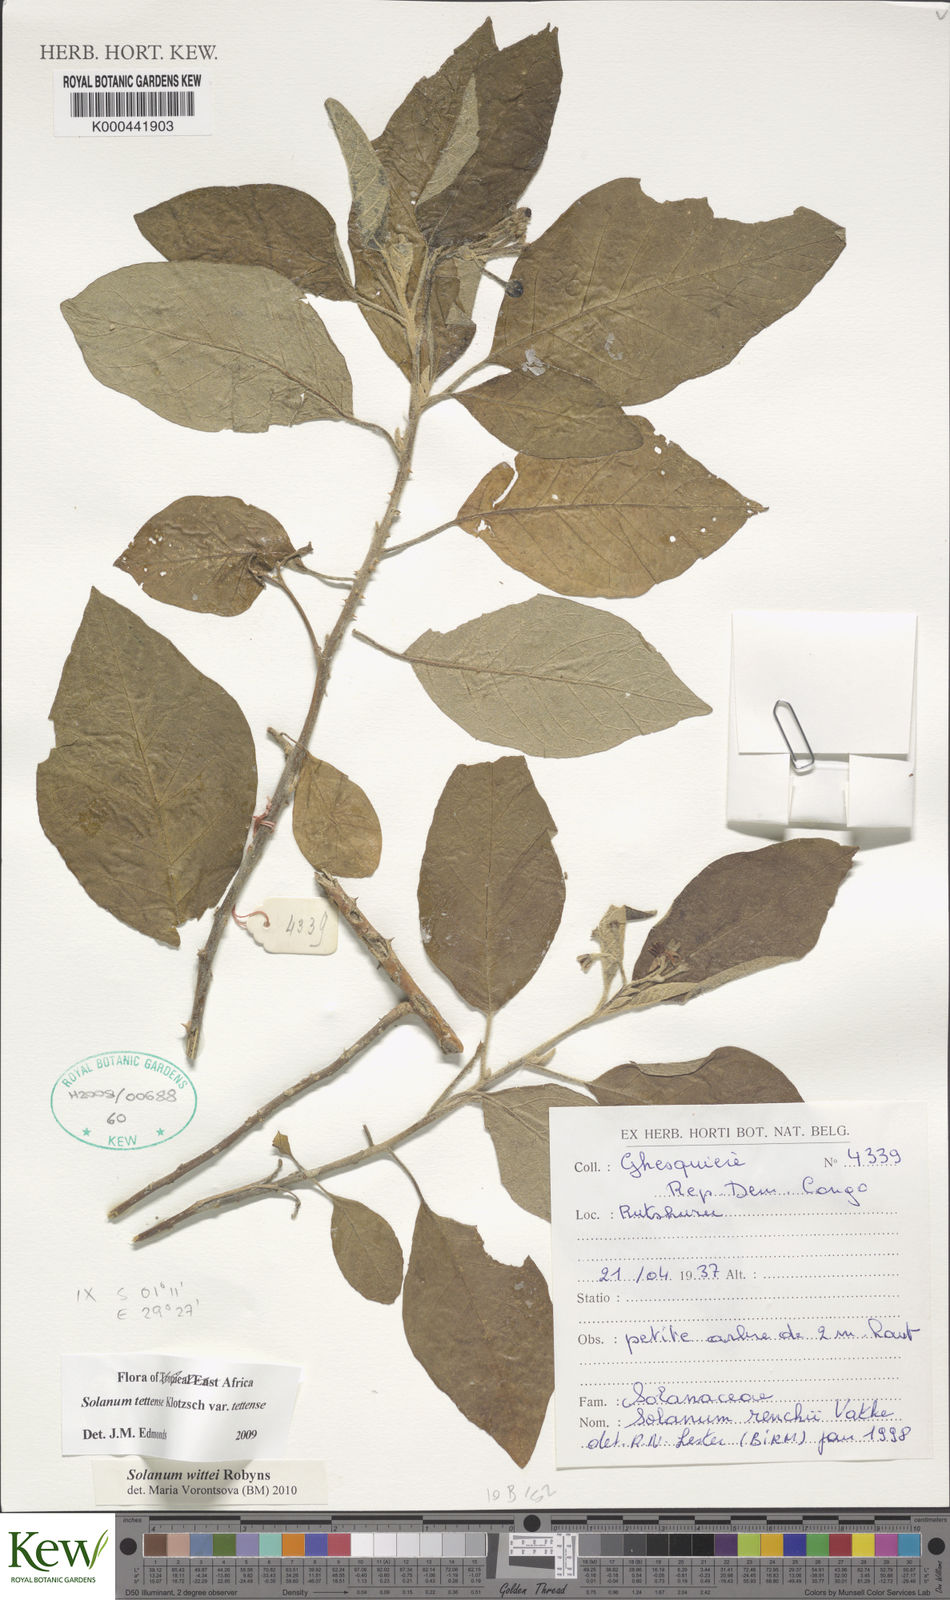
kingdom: Plantae
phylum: Tracheophyta
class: Magnoliopsida
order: Solanales
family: Solanaceae
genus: Solanum
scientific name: Solanum wittei
